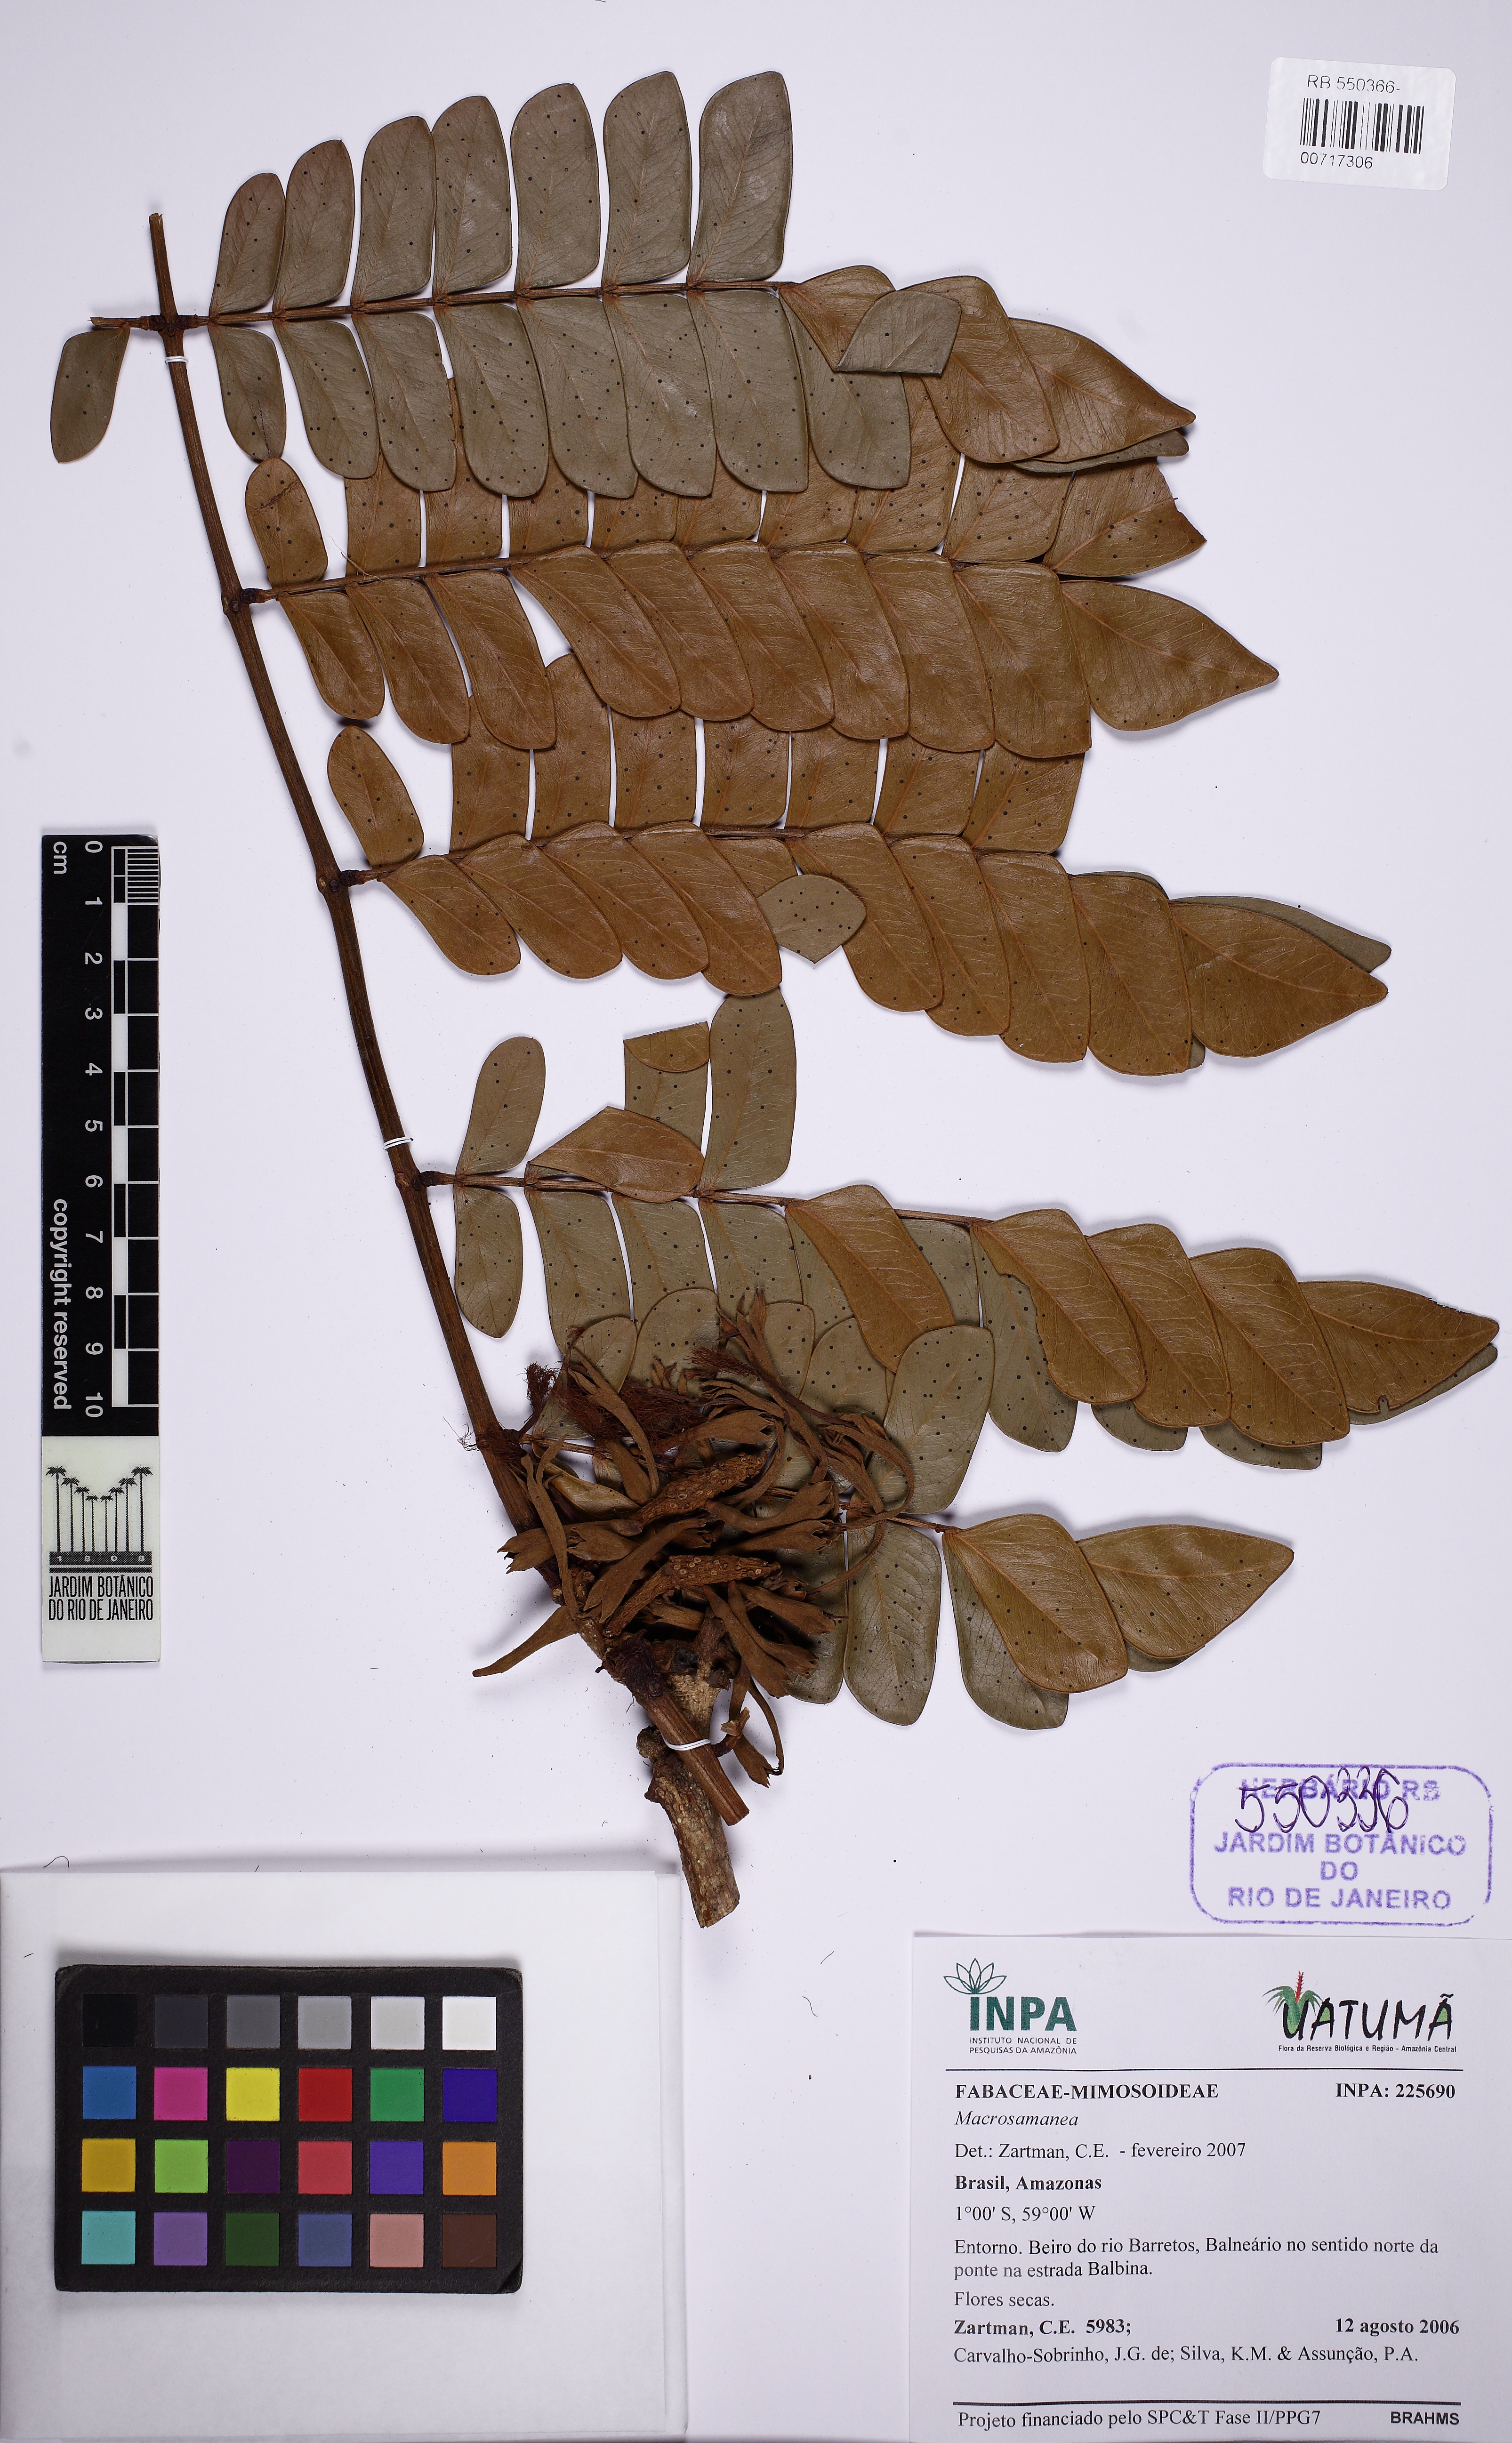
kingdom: Plantae
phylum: Tracheophyta
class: Magnoliopsida
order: Fabales
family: Fabaceae
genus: Macrosamanea
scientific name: Macrosamanea amplissima
